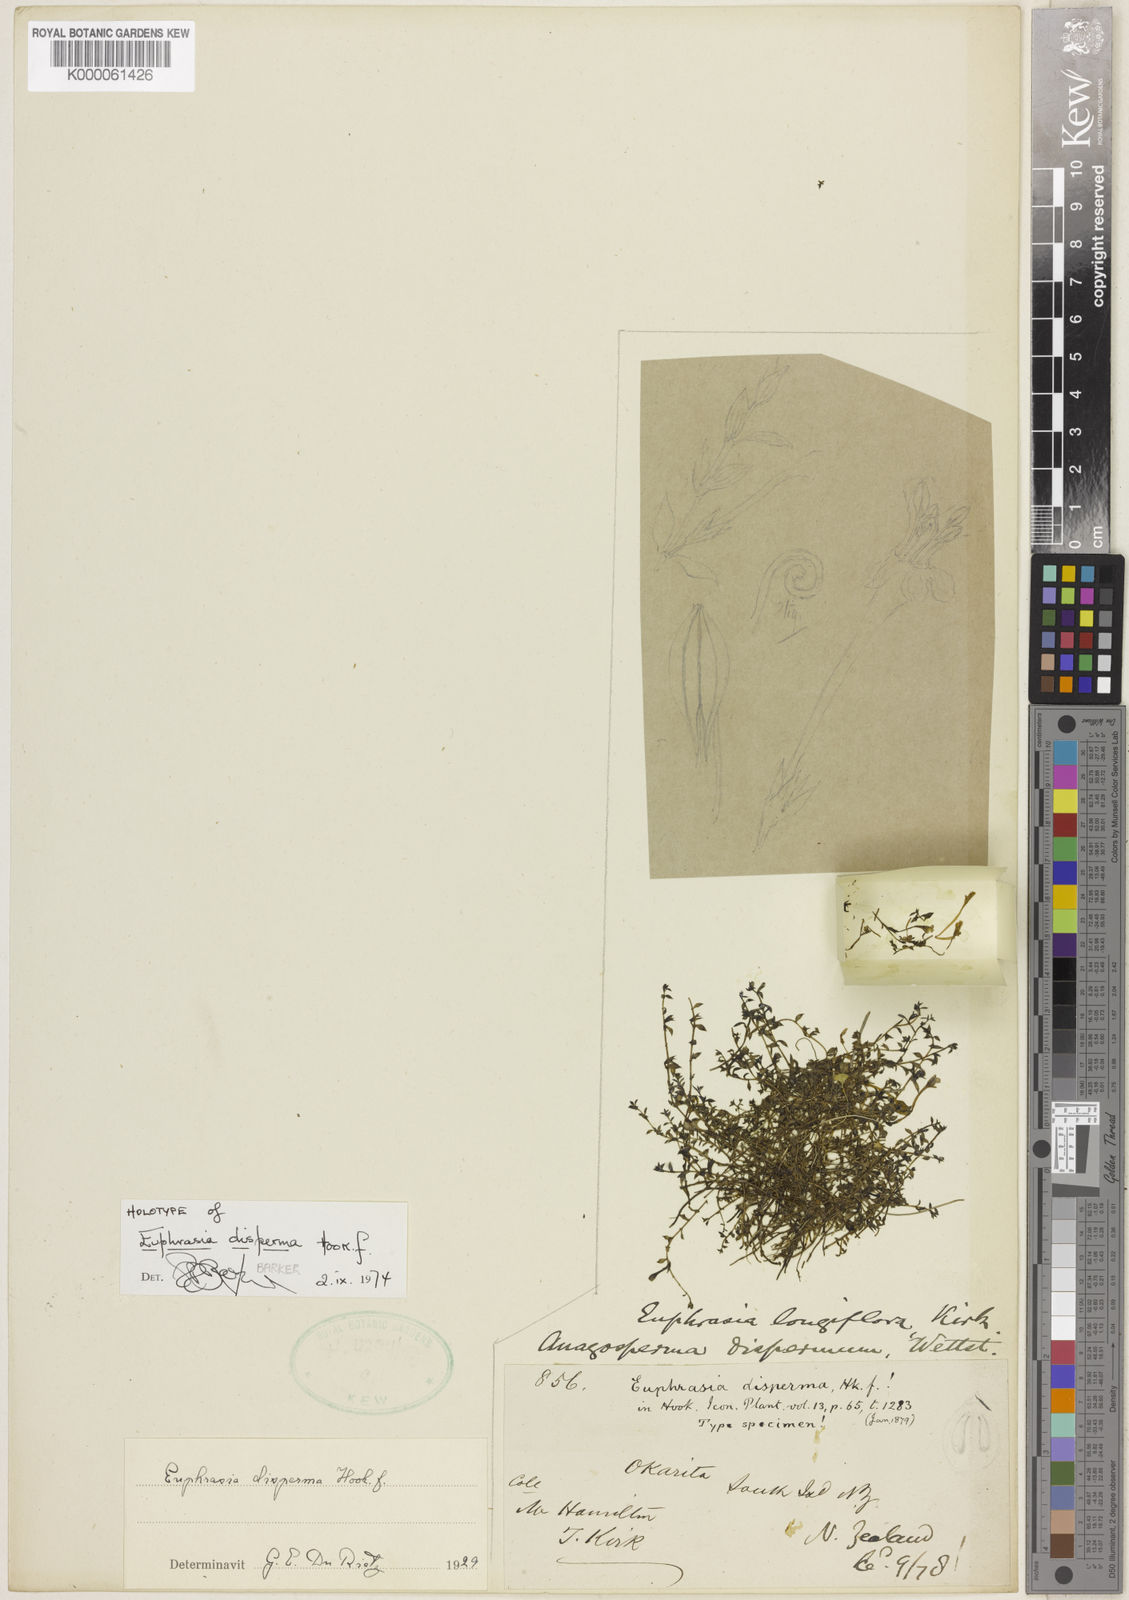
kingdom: Plantae
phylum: Tracheophyta
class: Magnoliopsida
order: Lamiales
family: Orobanchaceae
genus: Euphrasia
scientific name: Euphrasia disperma
